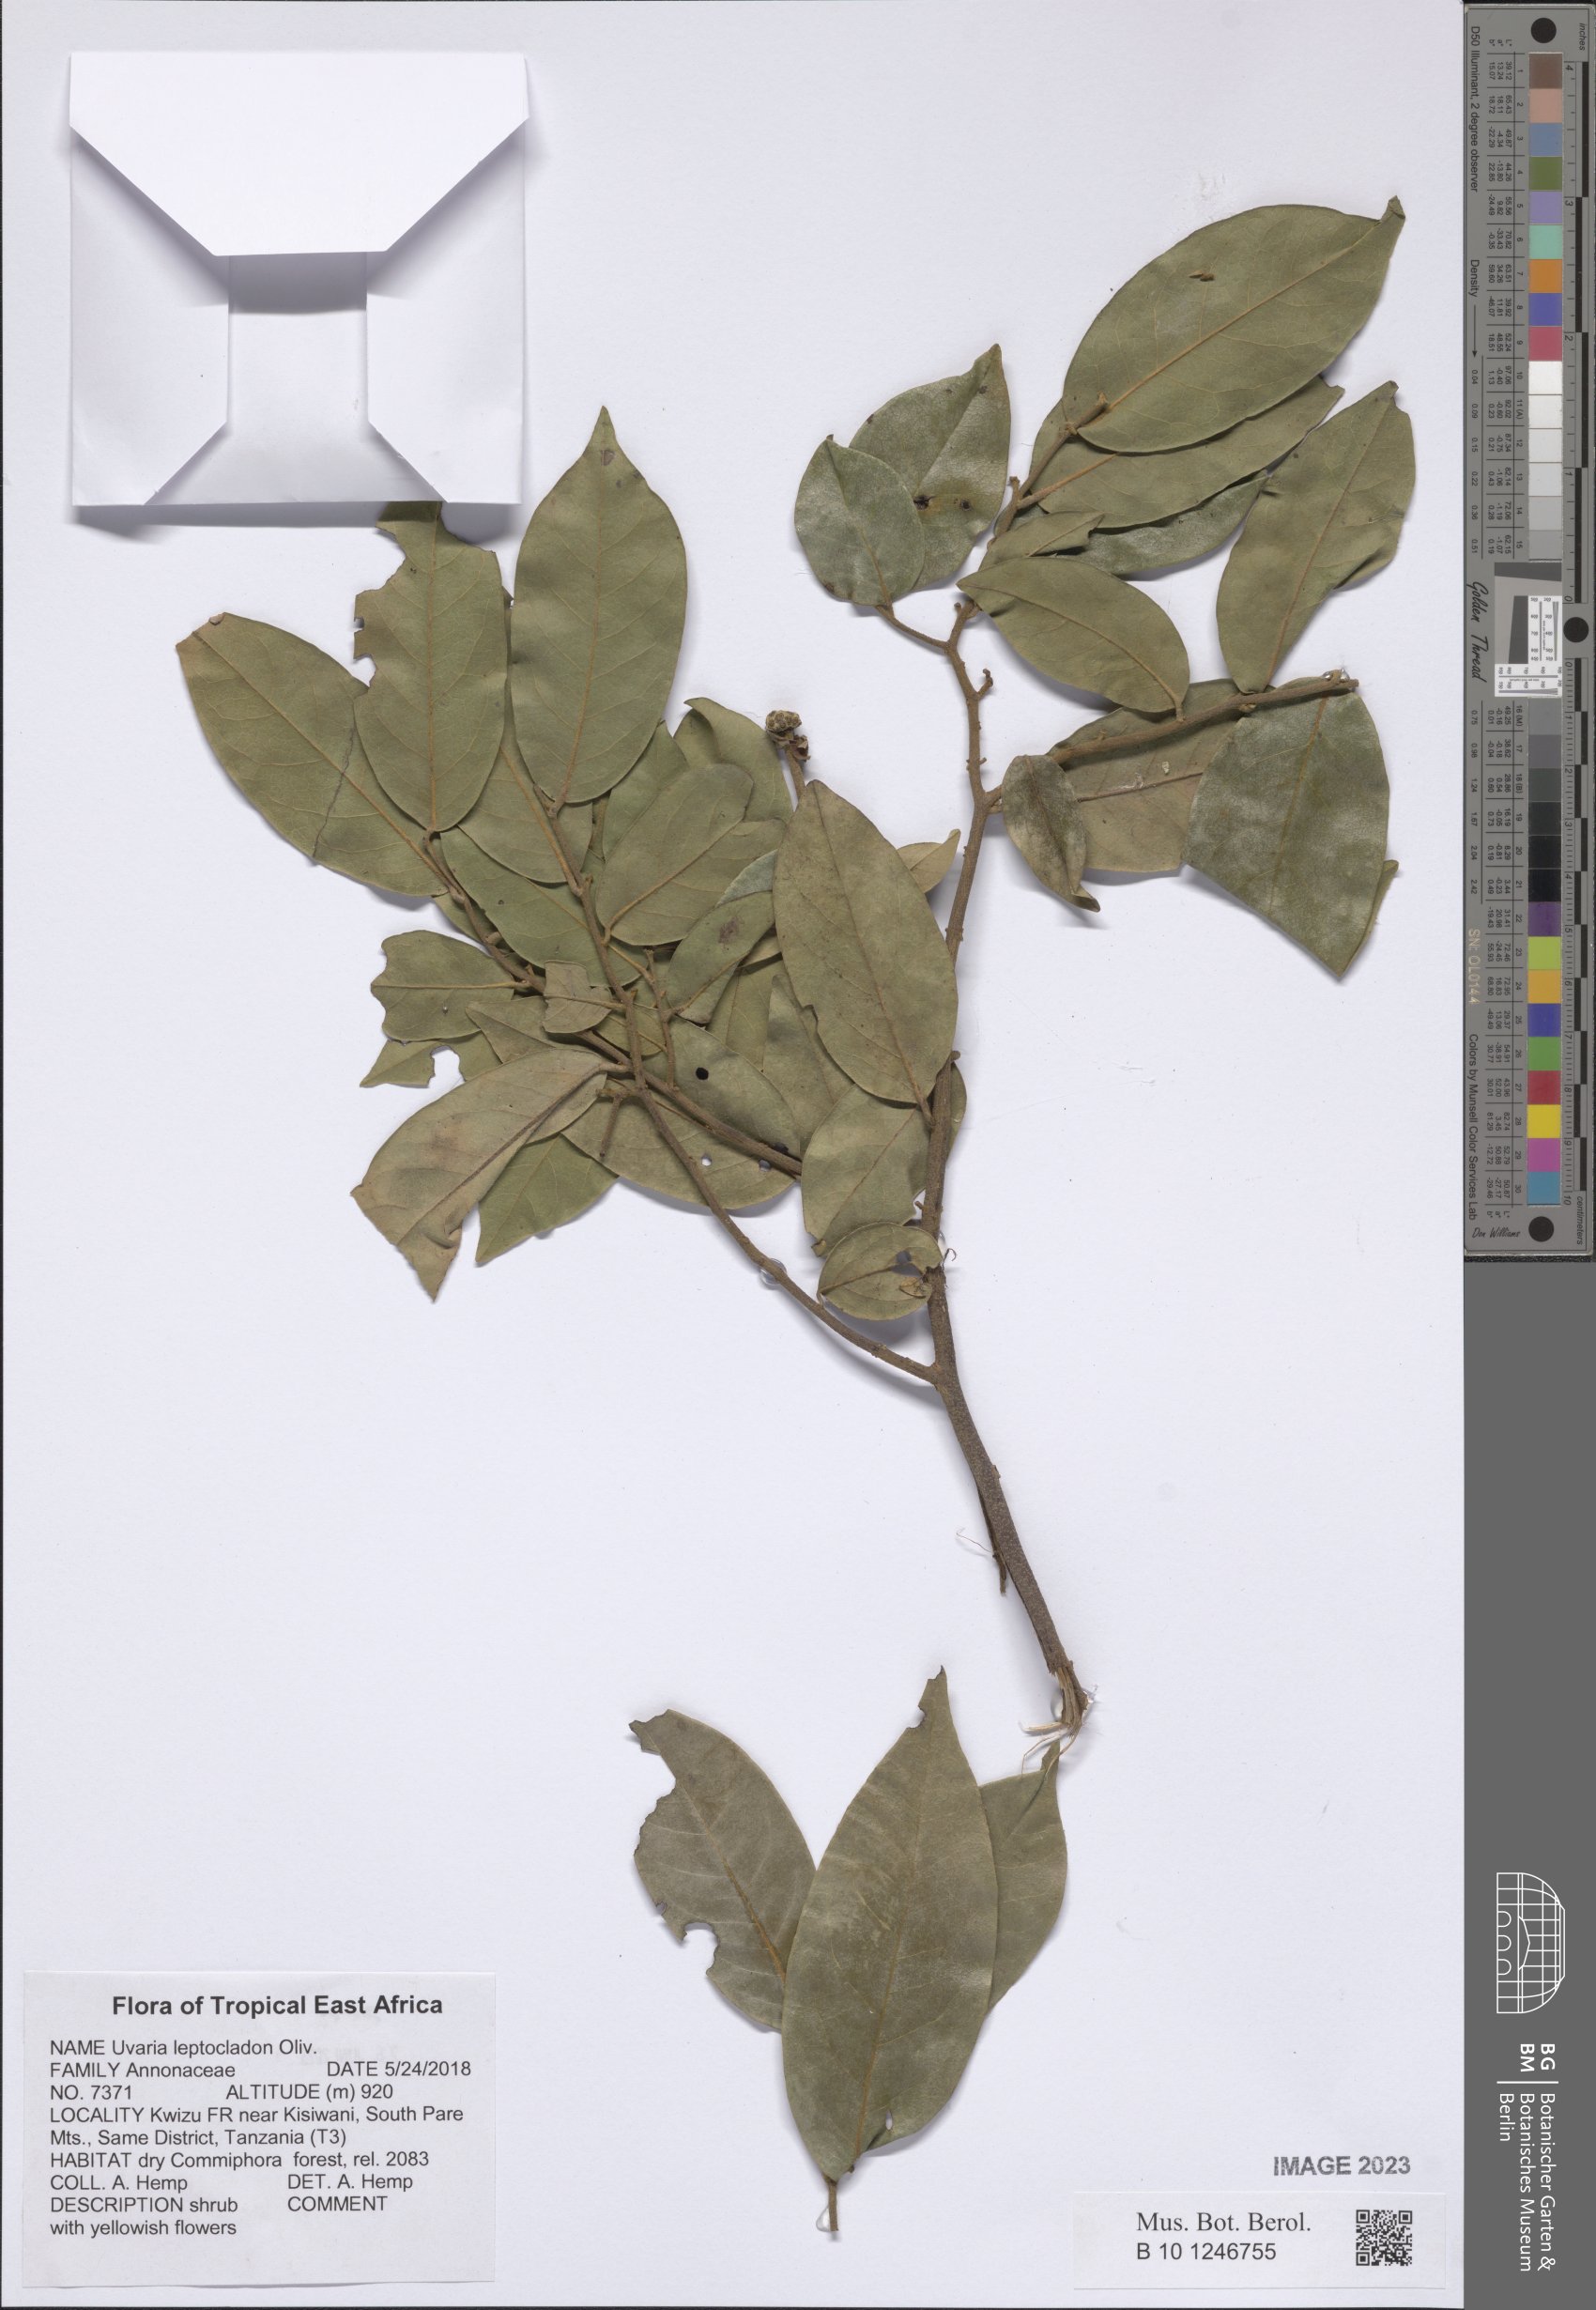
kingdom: Plantae
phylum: Tracheophyta
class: Magnoliopsida
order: Magnoliales
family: Annonaceae
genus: Uvaria
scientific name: Uvaria leptocladon
